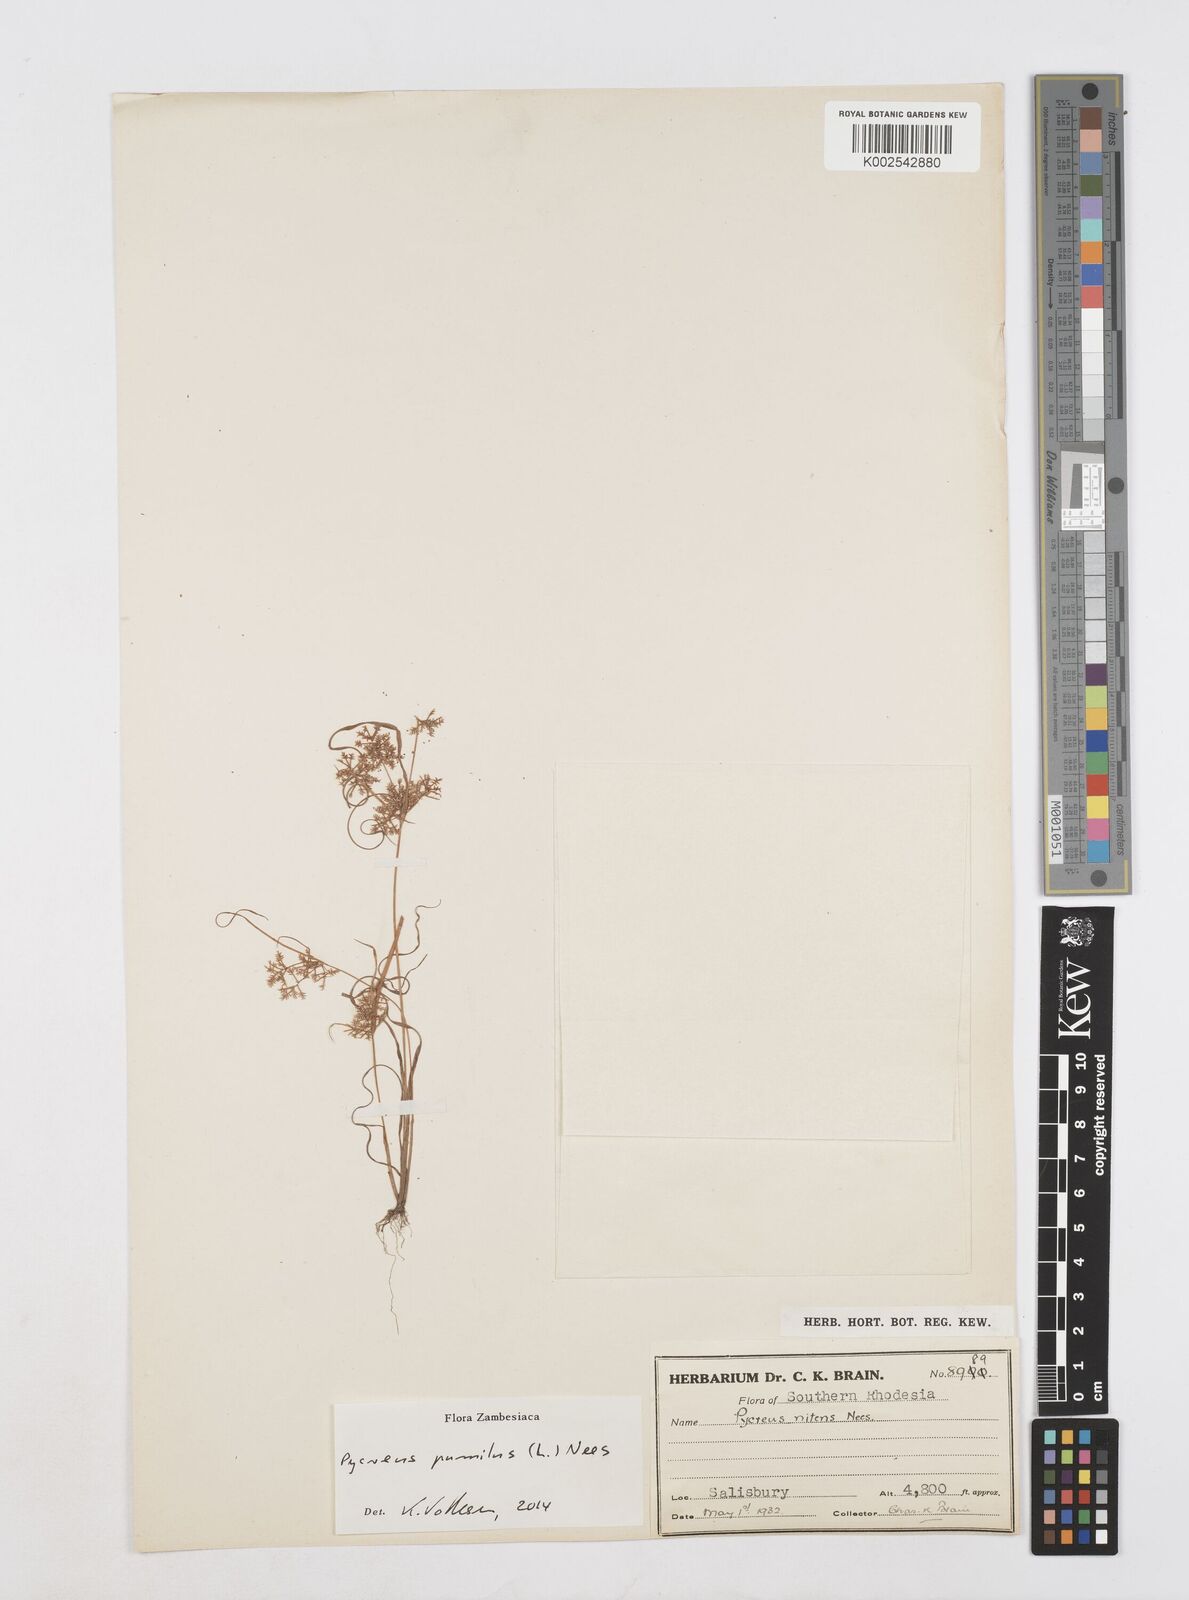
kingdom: Plantae
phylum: Tracheophyta
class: Liliopsida
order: Poales
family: Cyperaceae
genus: Cyperus
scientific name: Cyperus pumilus
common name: Low flatsedge
